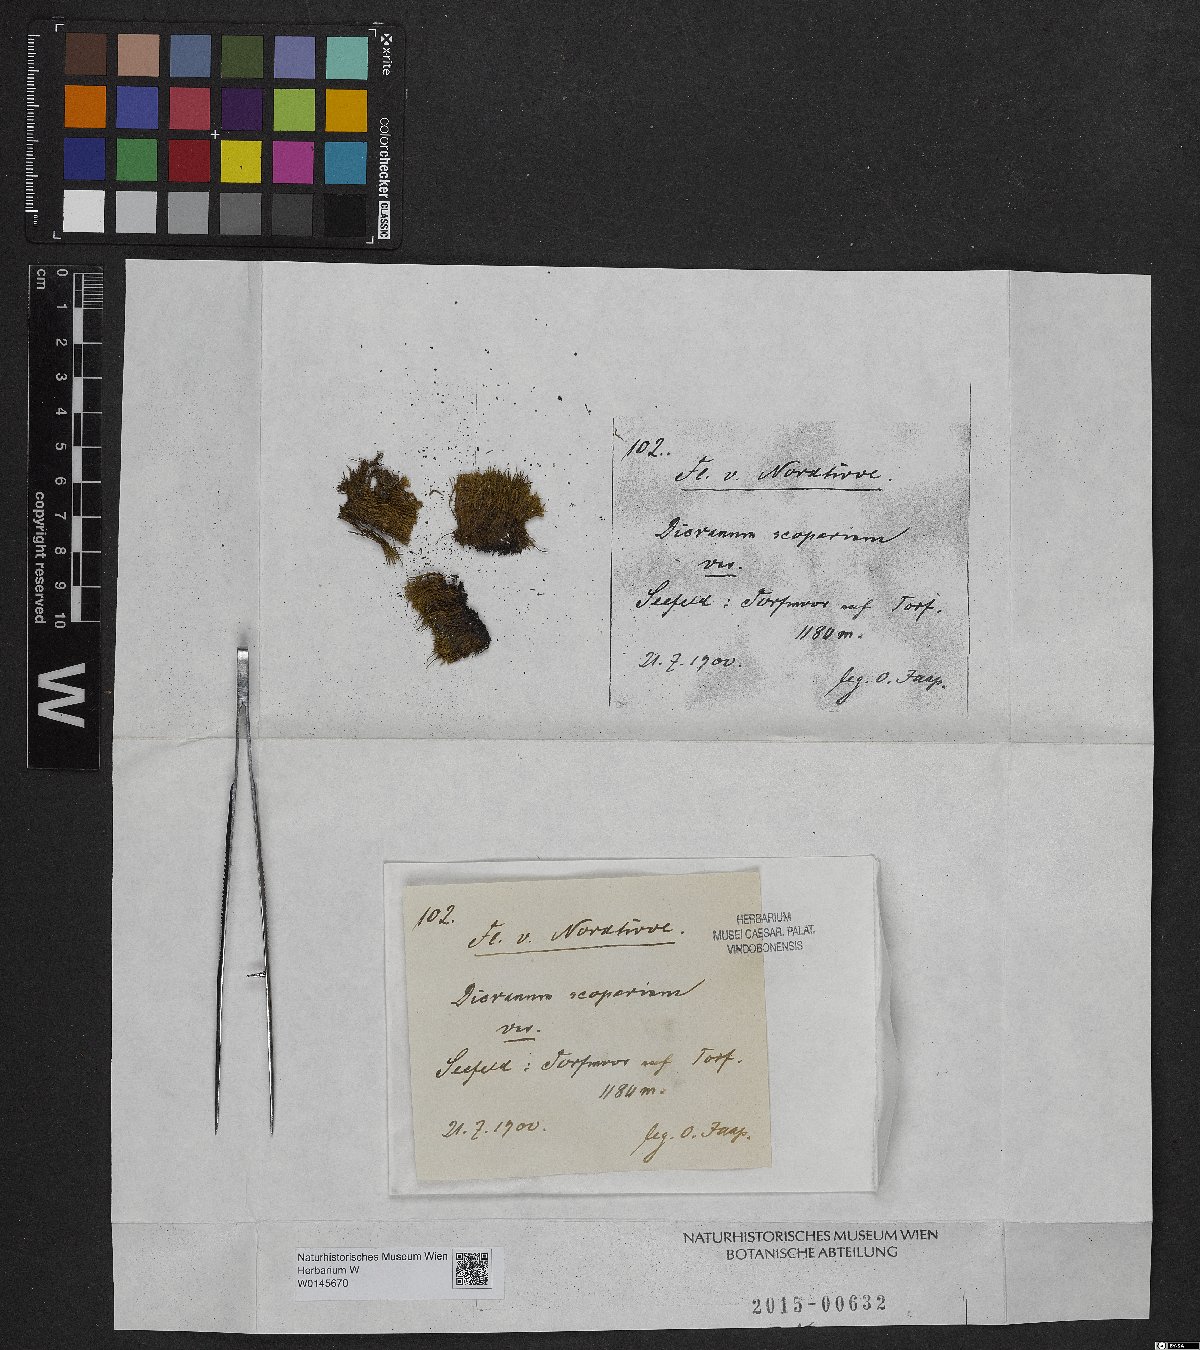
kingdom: Plantae
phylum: Bryophyta
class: Bryopsida
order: Dicranales
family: Dicranaceae
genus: Dicranum
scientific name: Dicranum scoparium
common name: Broom fork-moss
